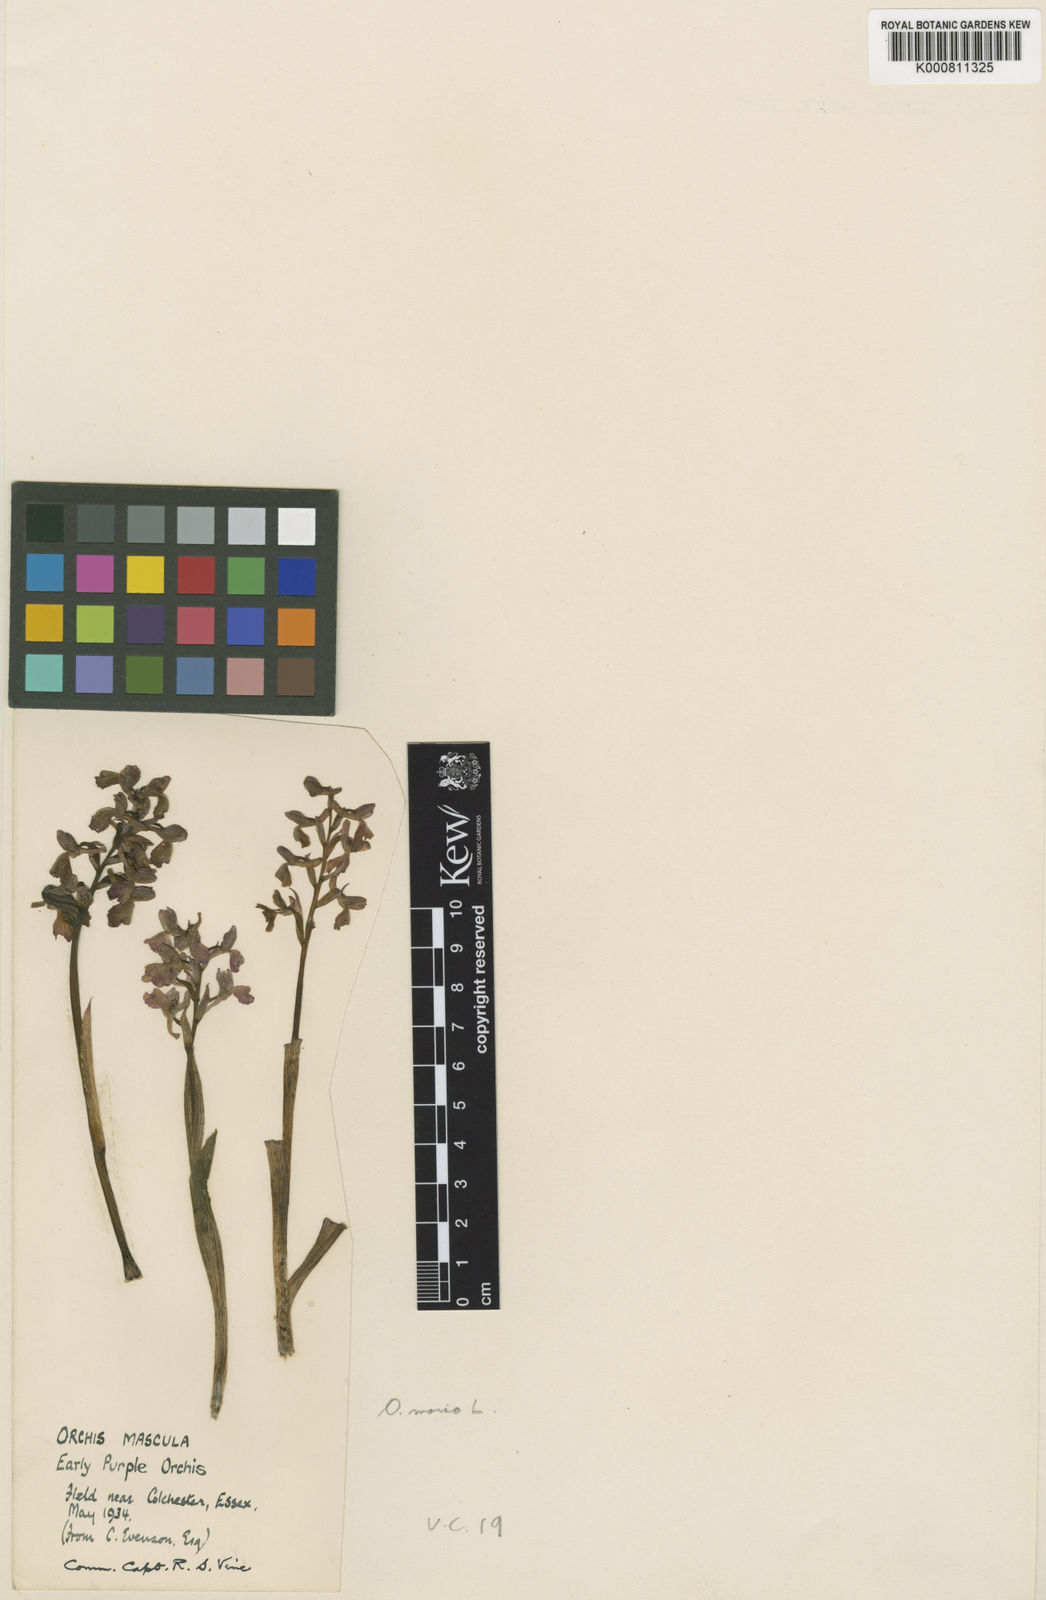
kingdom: Plantae
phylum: Tracheophyta
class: Liliopsida
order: Asparagales
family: Orchidaceae
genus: Anacamptis
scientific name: Anacamptis morio
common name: Green-winged orchid
